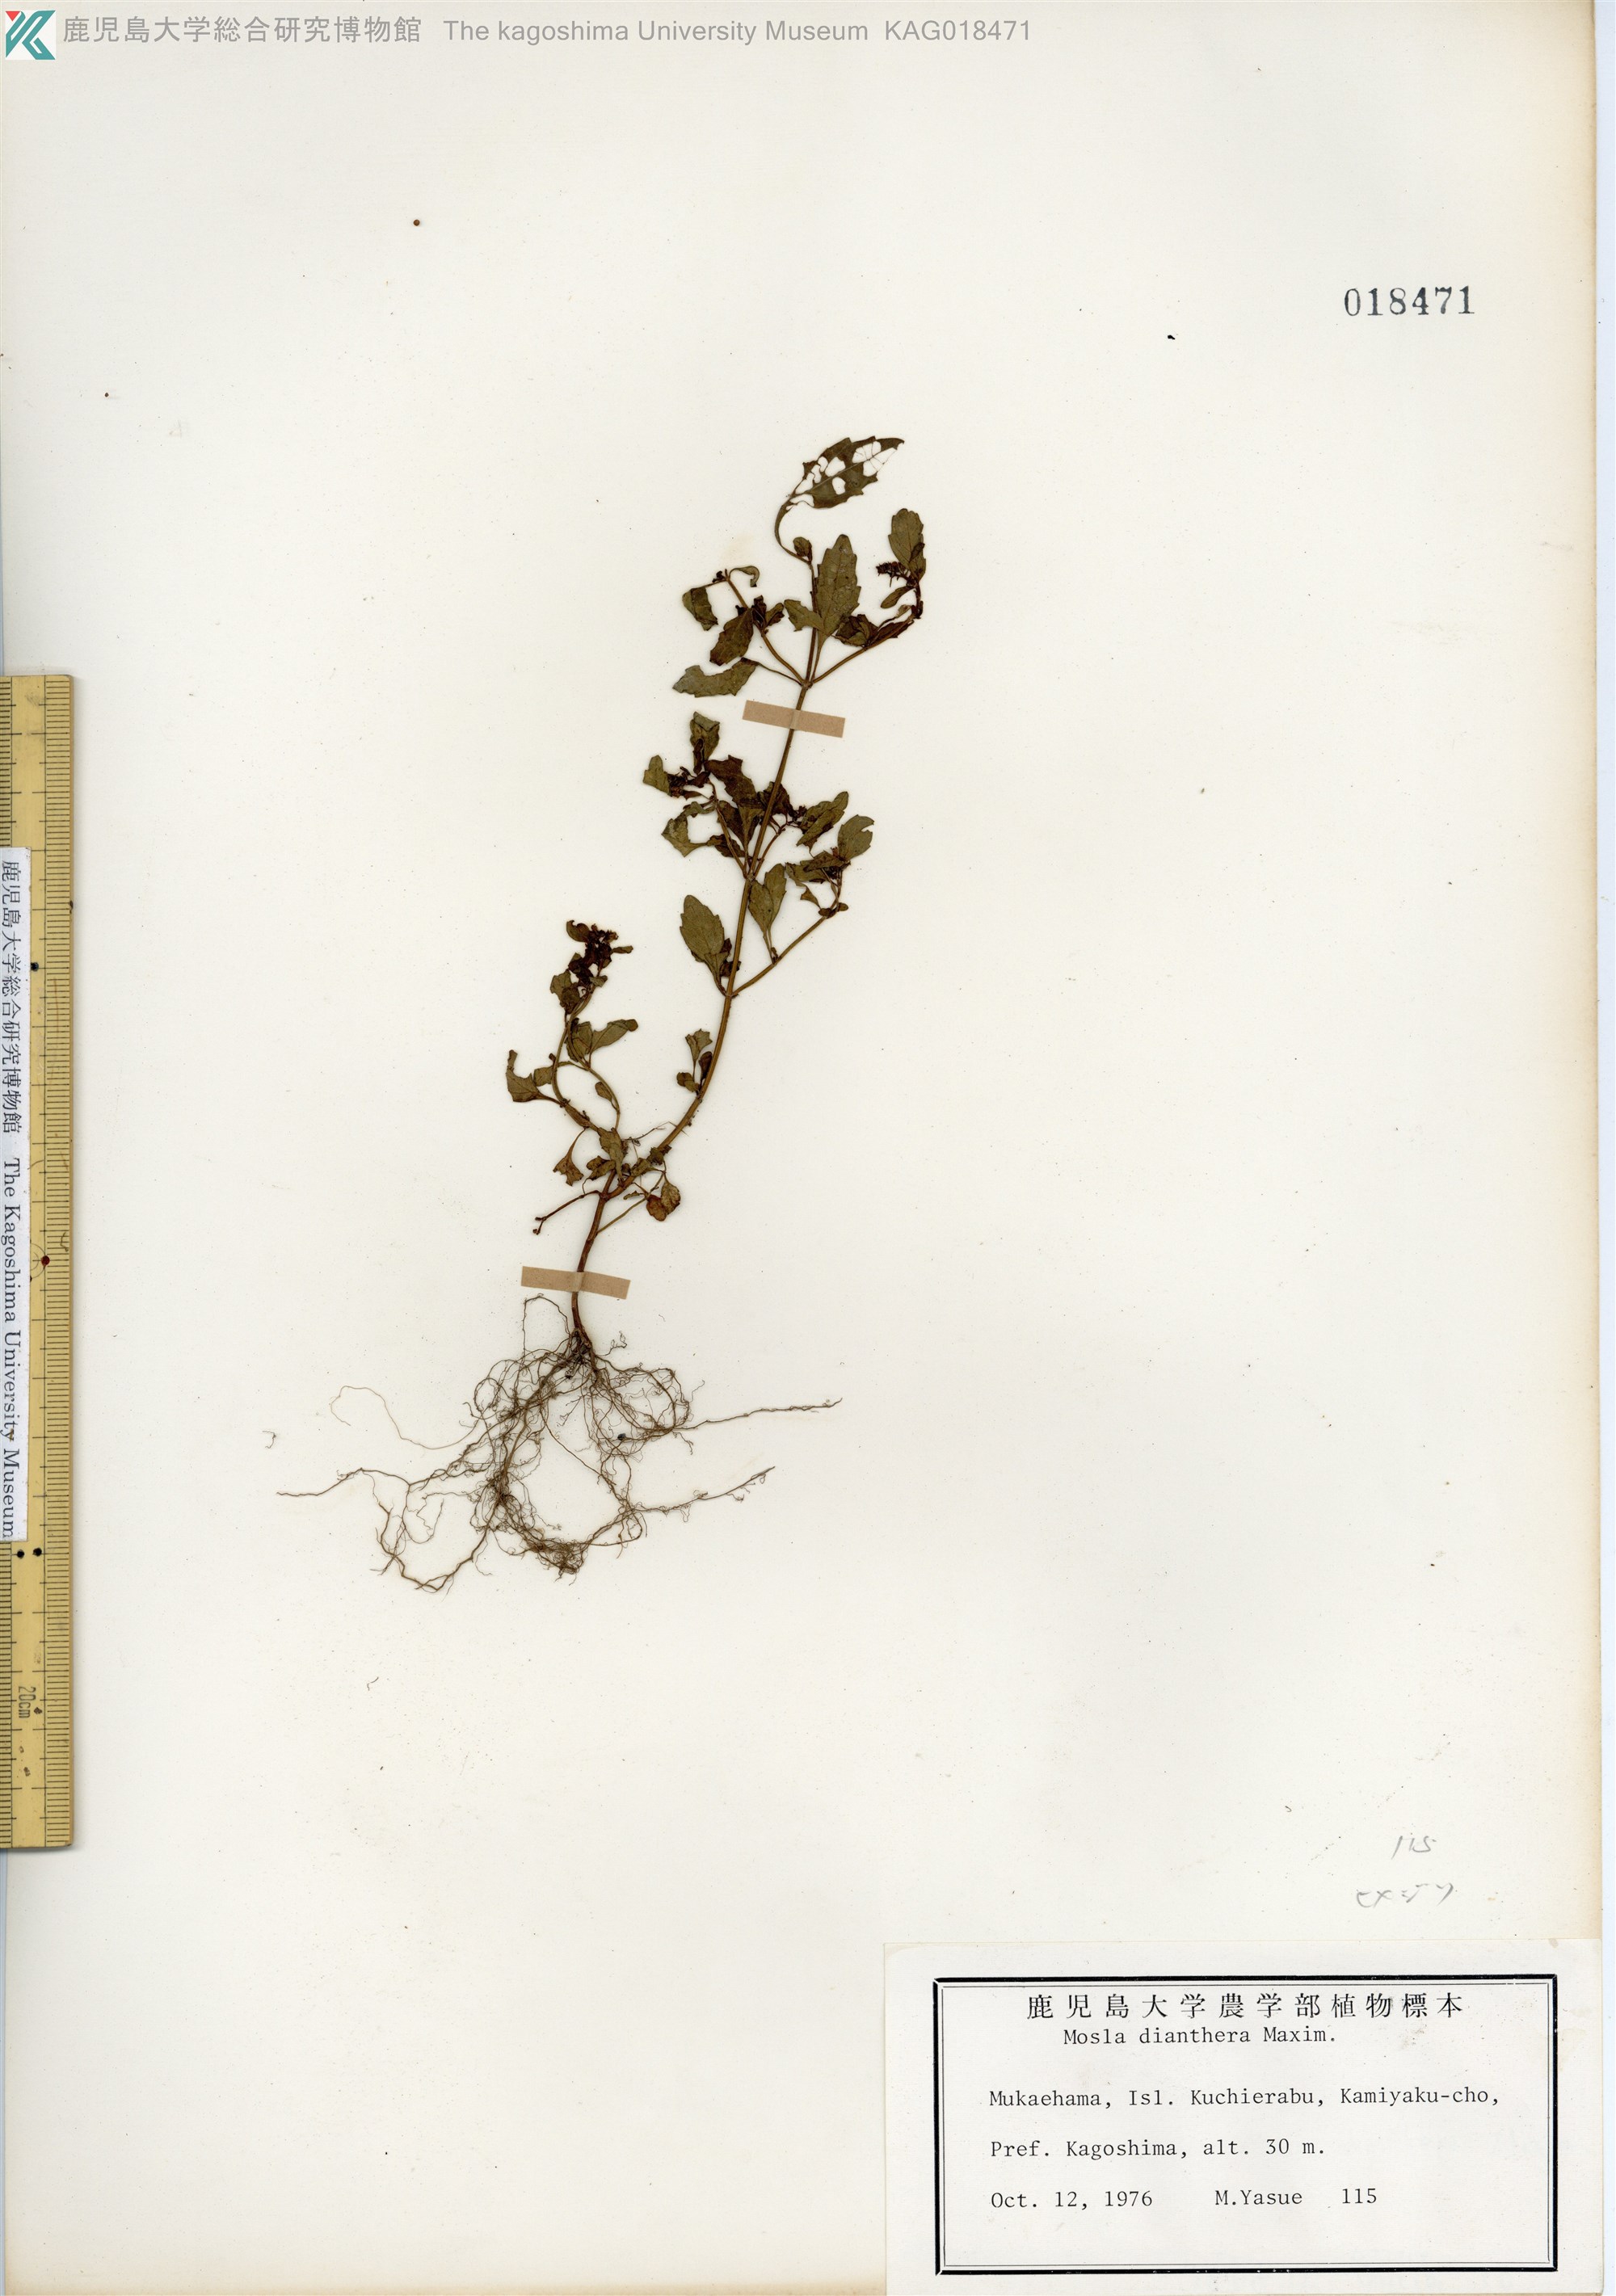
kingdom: Plantae
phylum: Tracheophyta
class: Magnoliopsida
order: Lamiales
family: Lamiaceae
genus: Mosla
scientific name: Mosla dianthera
